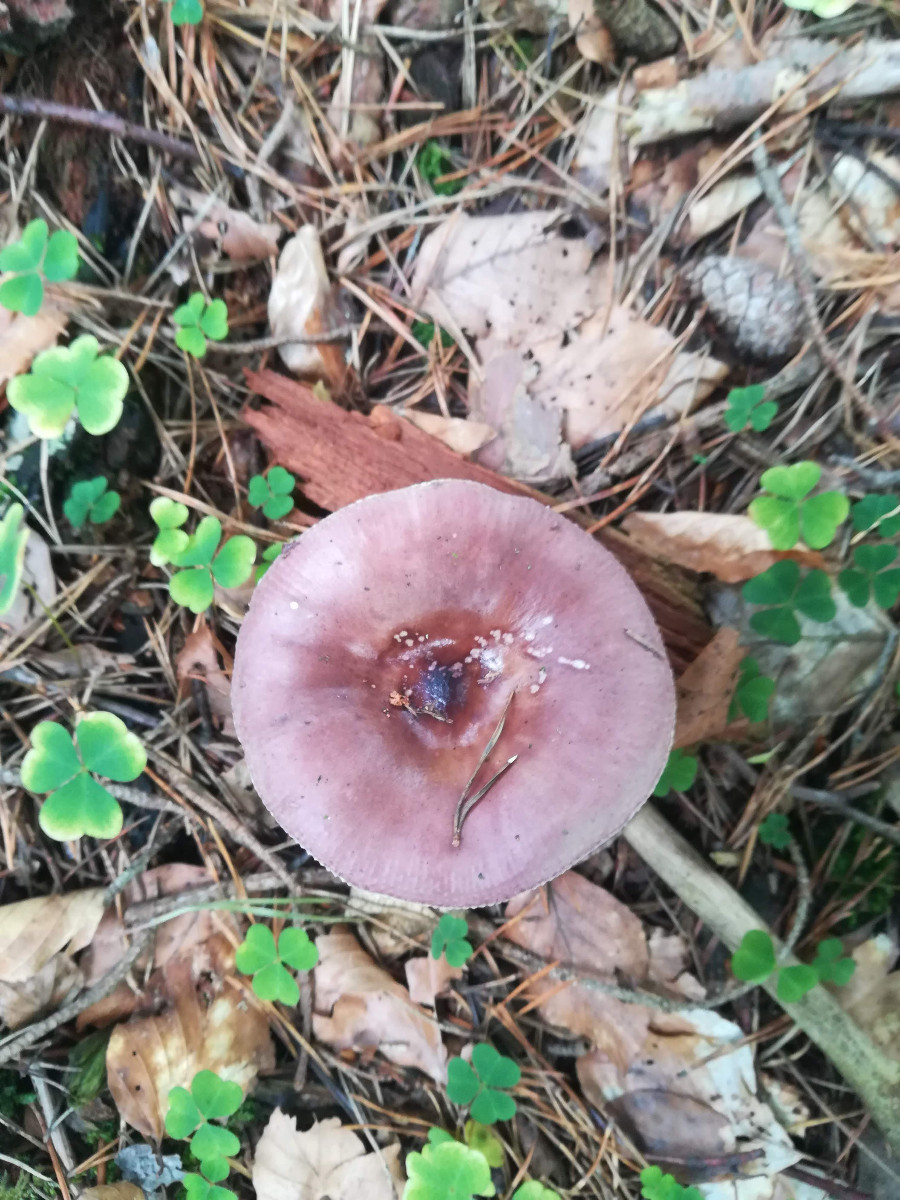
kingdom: Fungi
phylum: Basidiomycota
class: Agaricomycetes
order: Russulales
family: Russulaceae
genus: Russula
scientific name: Russula caerulea
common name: puklet skørhat
